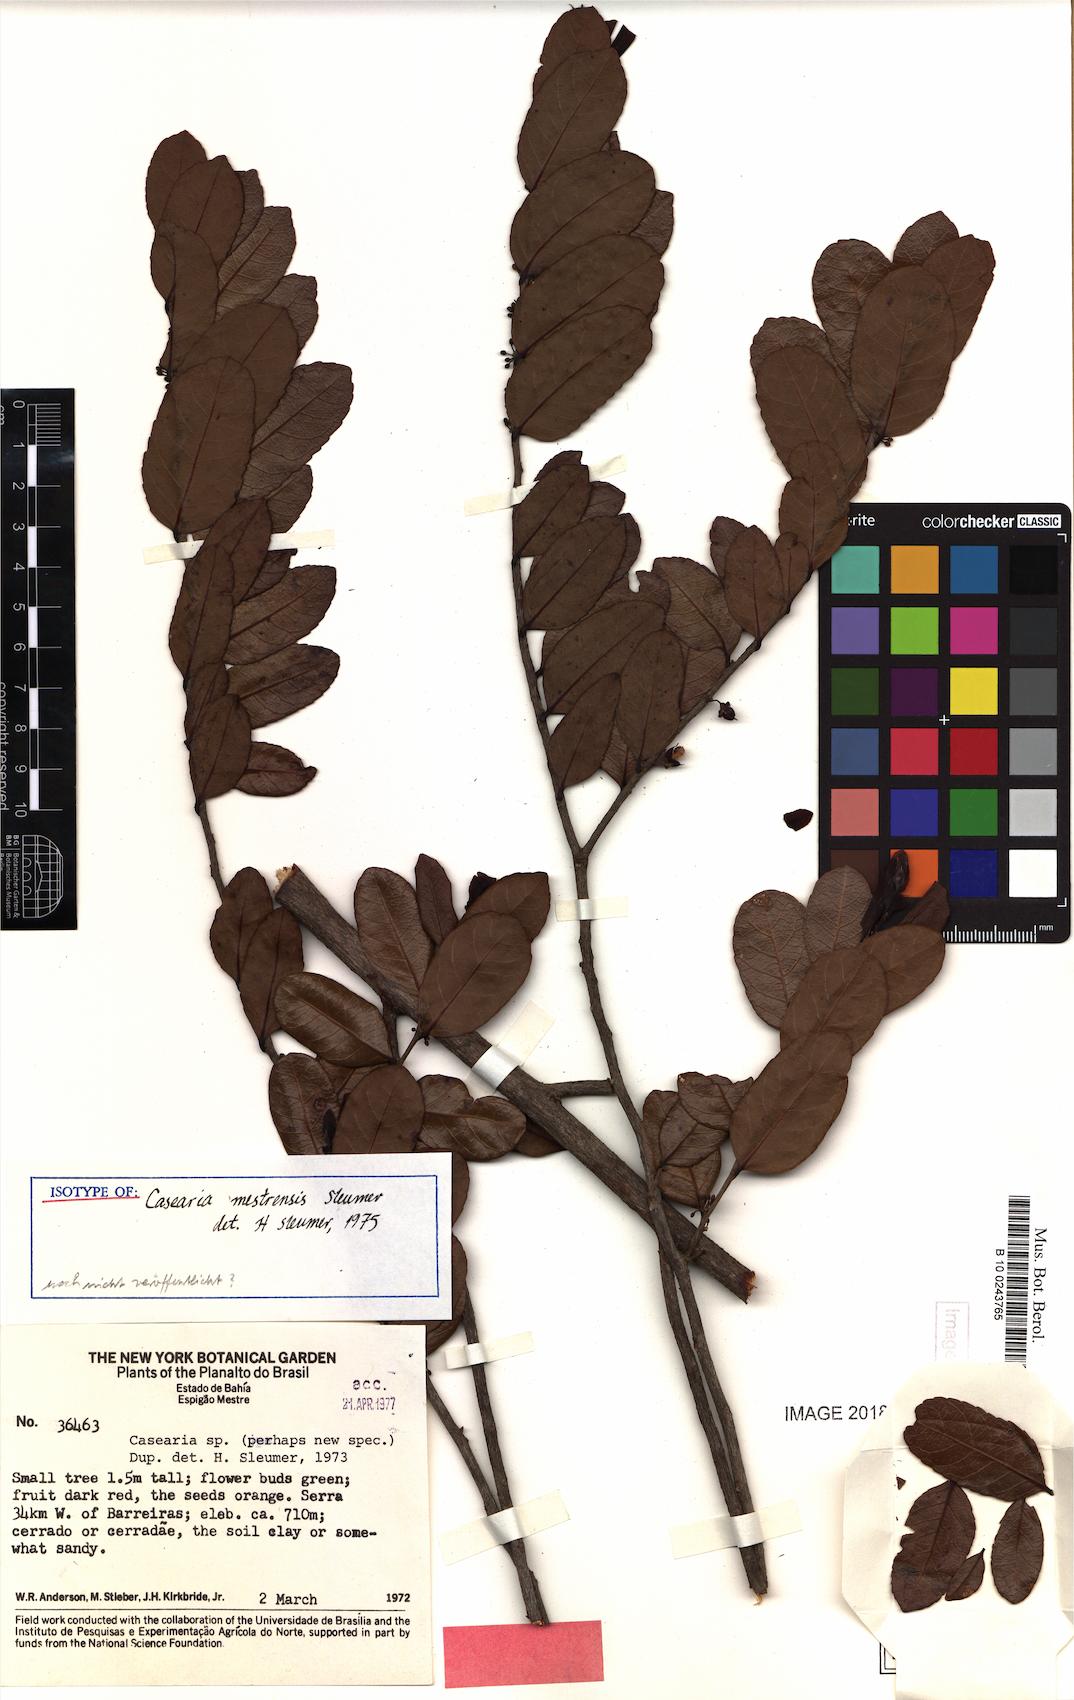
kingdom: Plantae
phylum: Tracheophyta
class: Magnoliopsida
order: Malpighiales
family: Salicaceae
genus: Casearia
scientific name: Casearia mestrensis
